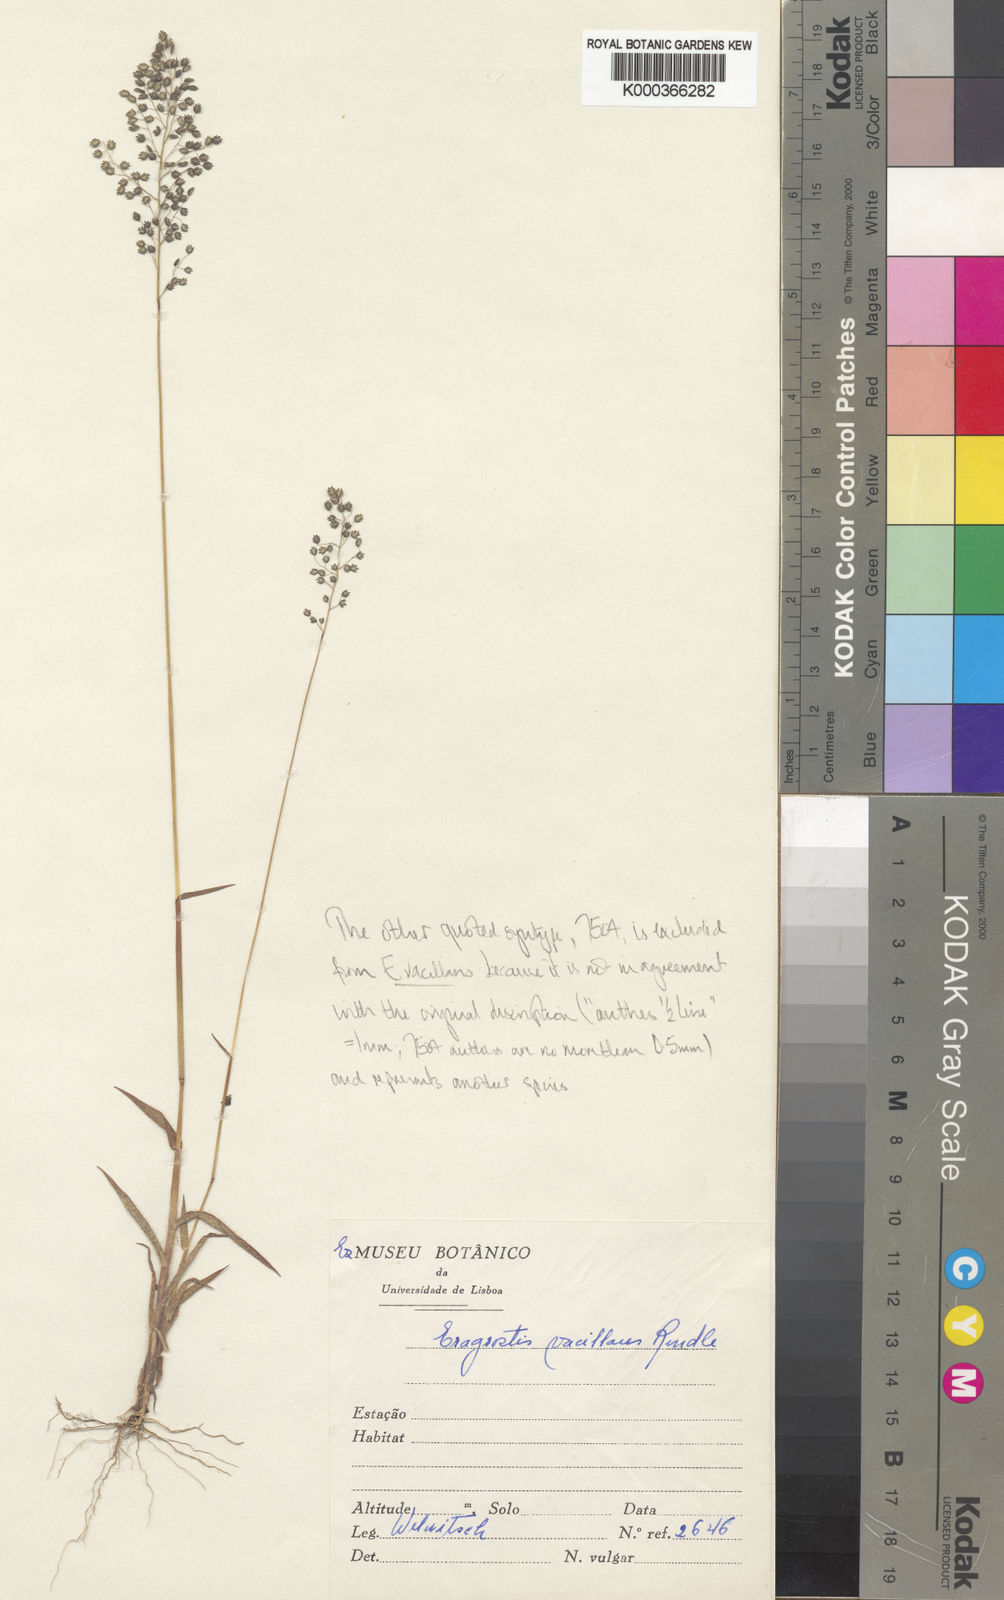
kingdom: Plantae
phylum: Tracheophyta
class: Liliopsida
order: Poales
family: Poaceae
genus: Eragrostis
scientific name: Eragrostis vacillans
